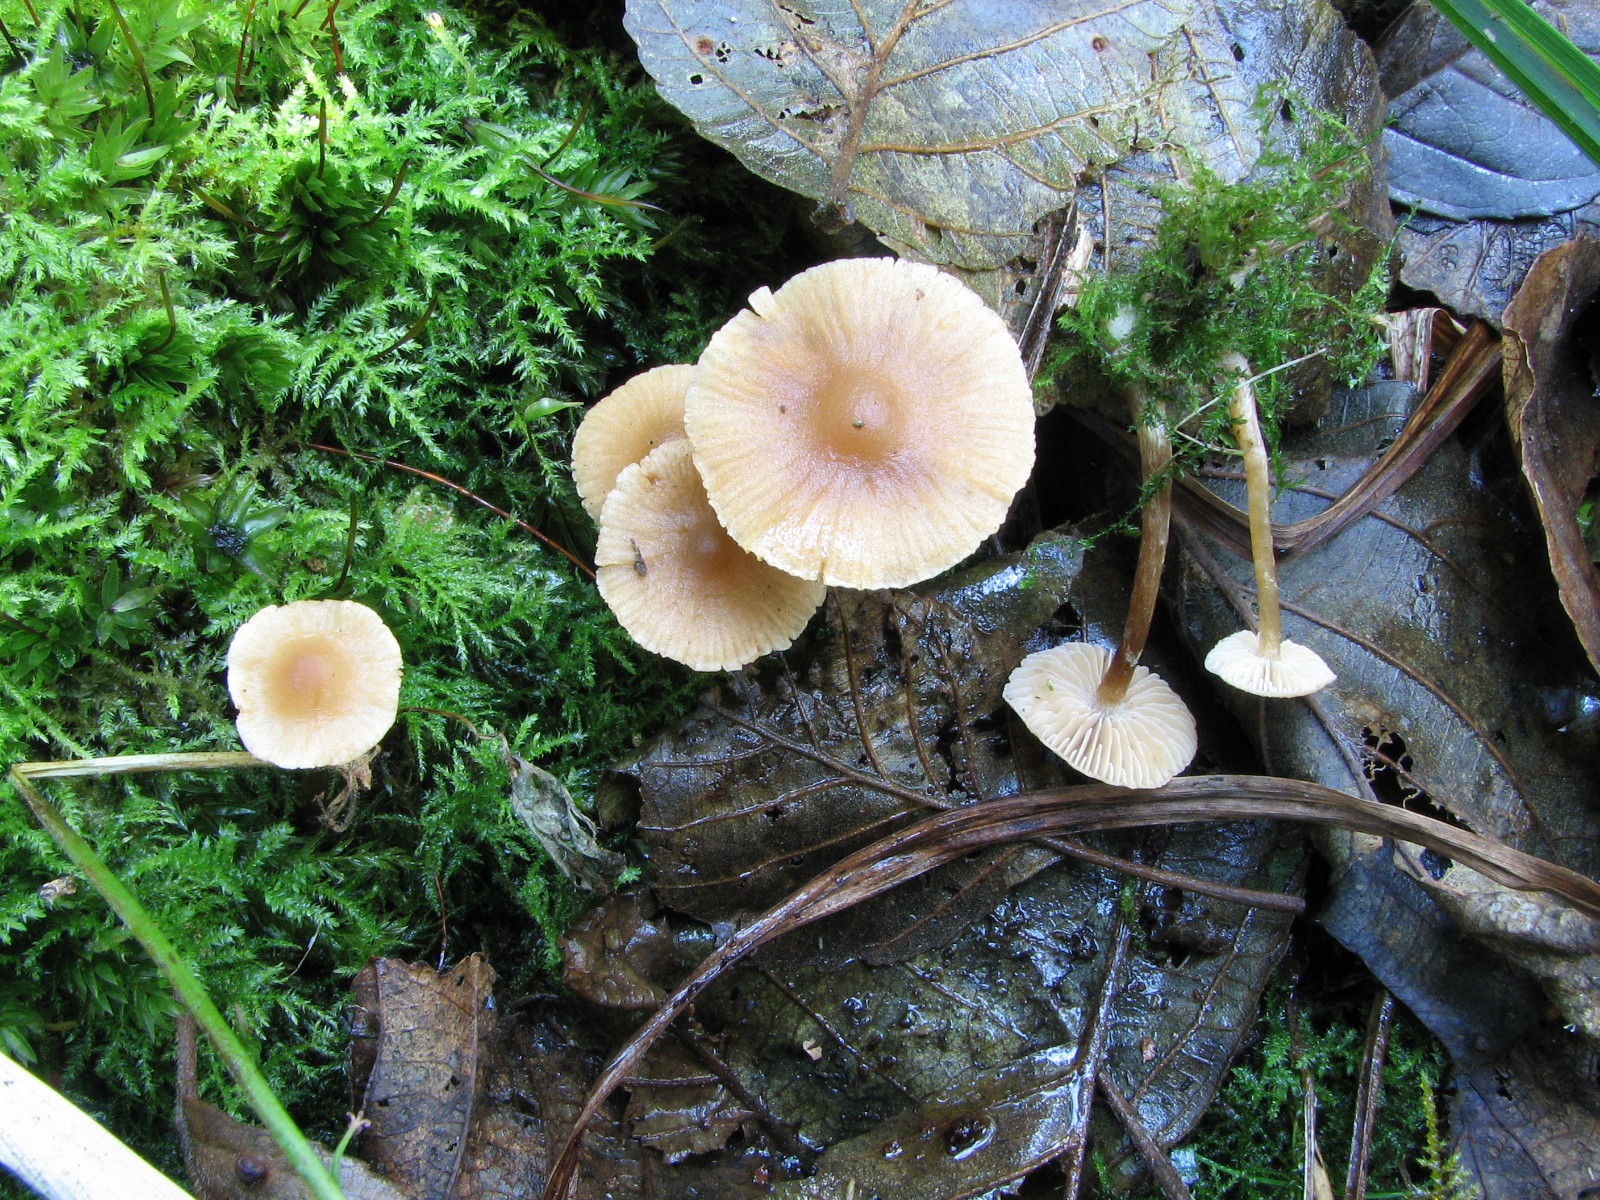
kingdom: Fungi
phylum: Basidiomycota
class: Agaricomycetes
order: Agaricales
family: Hymenogastraceae
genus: Naucoria
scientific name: Naucoria subconspersa
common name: filtet knaphat
